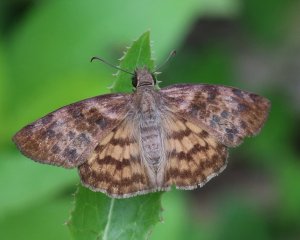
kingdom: Animalia
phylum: Arthropoda
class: Insecta
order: Lepidoptera
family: Hesperiidae
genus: Timochares
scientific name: Timochares ruptifasciata
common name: Brown-banded Skipper
